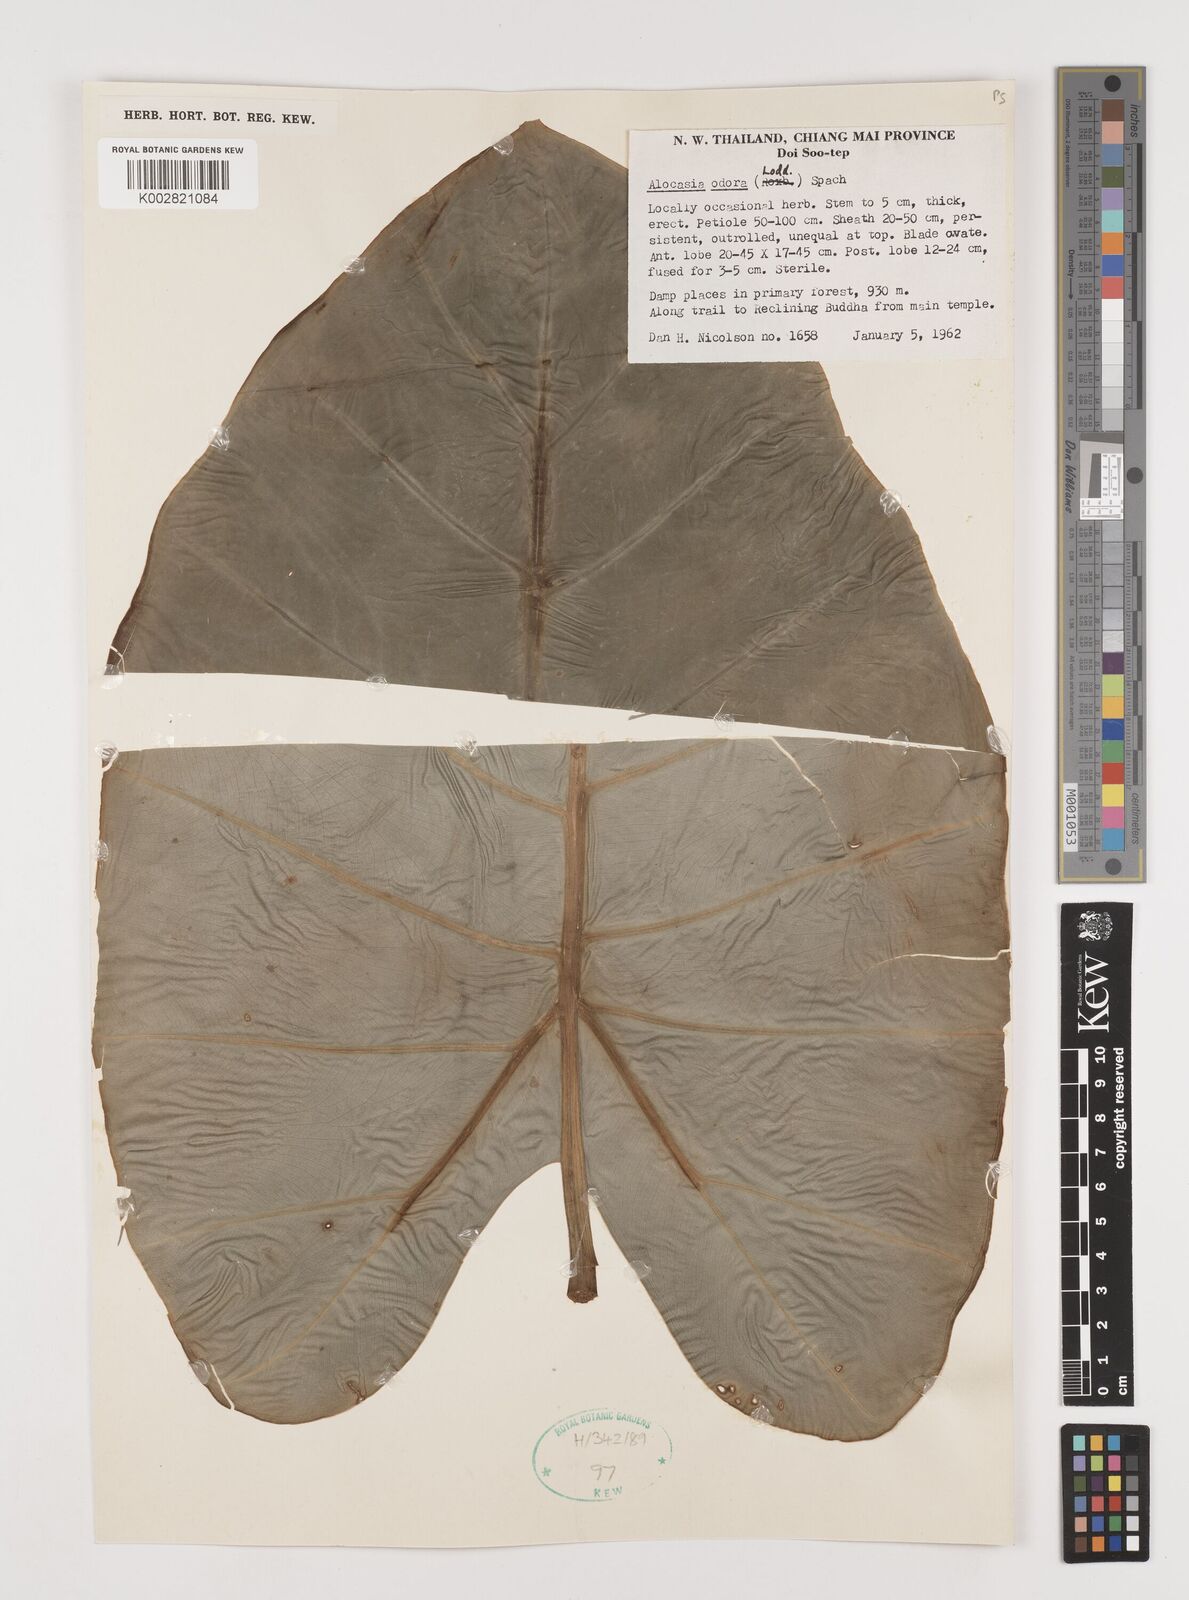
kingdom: Plantae
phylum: Tracheophyta
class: Liliopsida
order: Alismatales
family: Araceae
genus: Alocasia
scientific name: Alocasia
